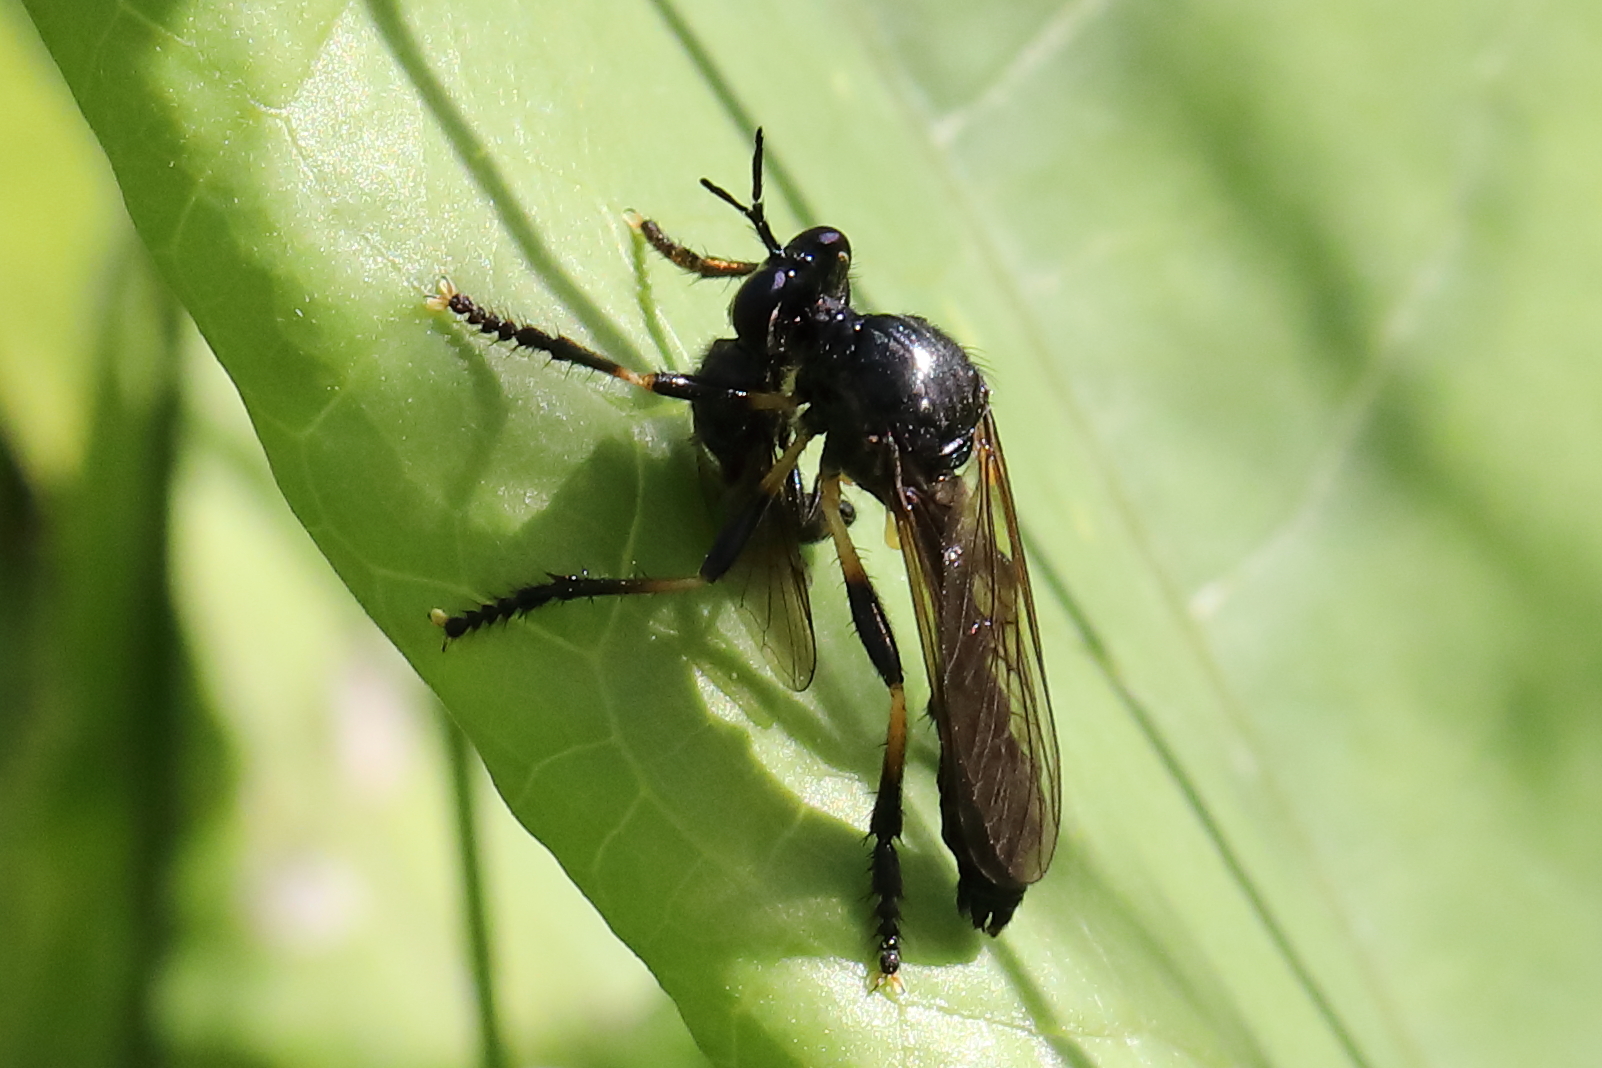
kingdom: Animalia
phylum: Arthropoda
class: Insecta
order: Diptera
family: Asilidae
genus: Dioctria
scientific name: Dioctria cothurnata
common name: Scarce red-legged robberfly
